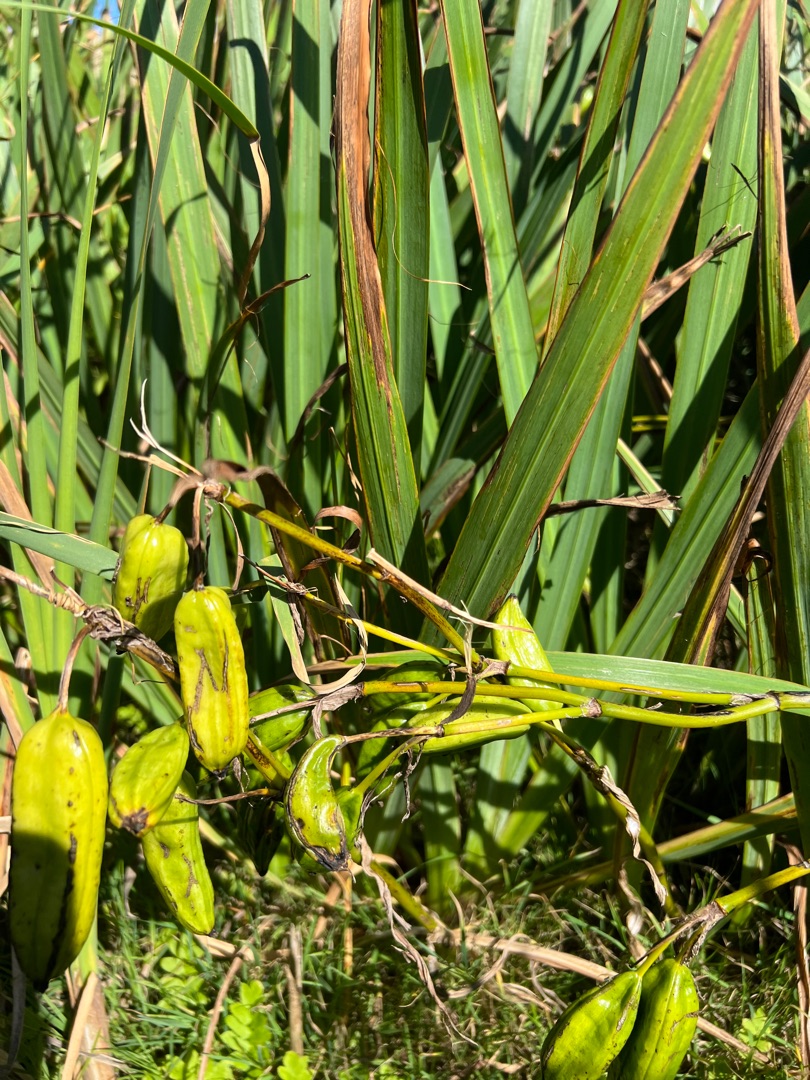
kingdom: Plantae
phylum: Tracheophyta
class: Liliopsida
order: Asparagales
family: Iridaceae
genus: Iris
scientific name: Iris pseudacorus
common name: Gul iris
